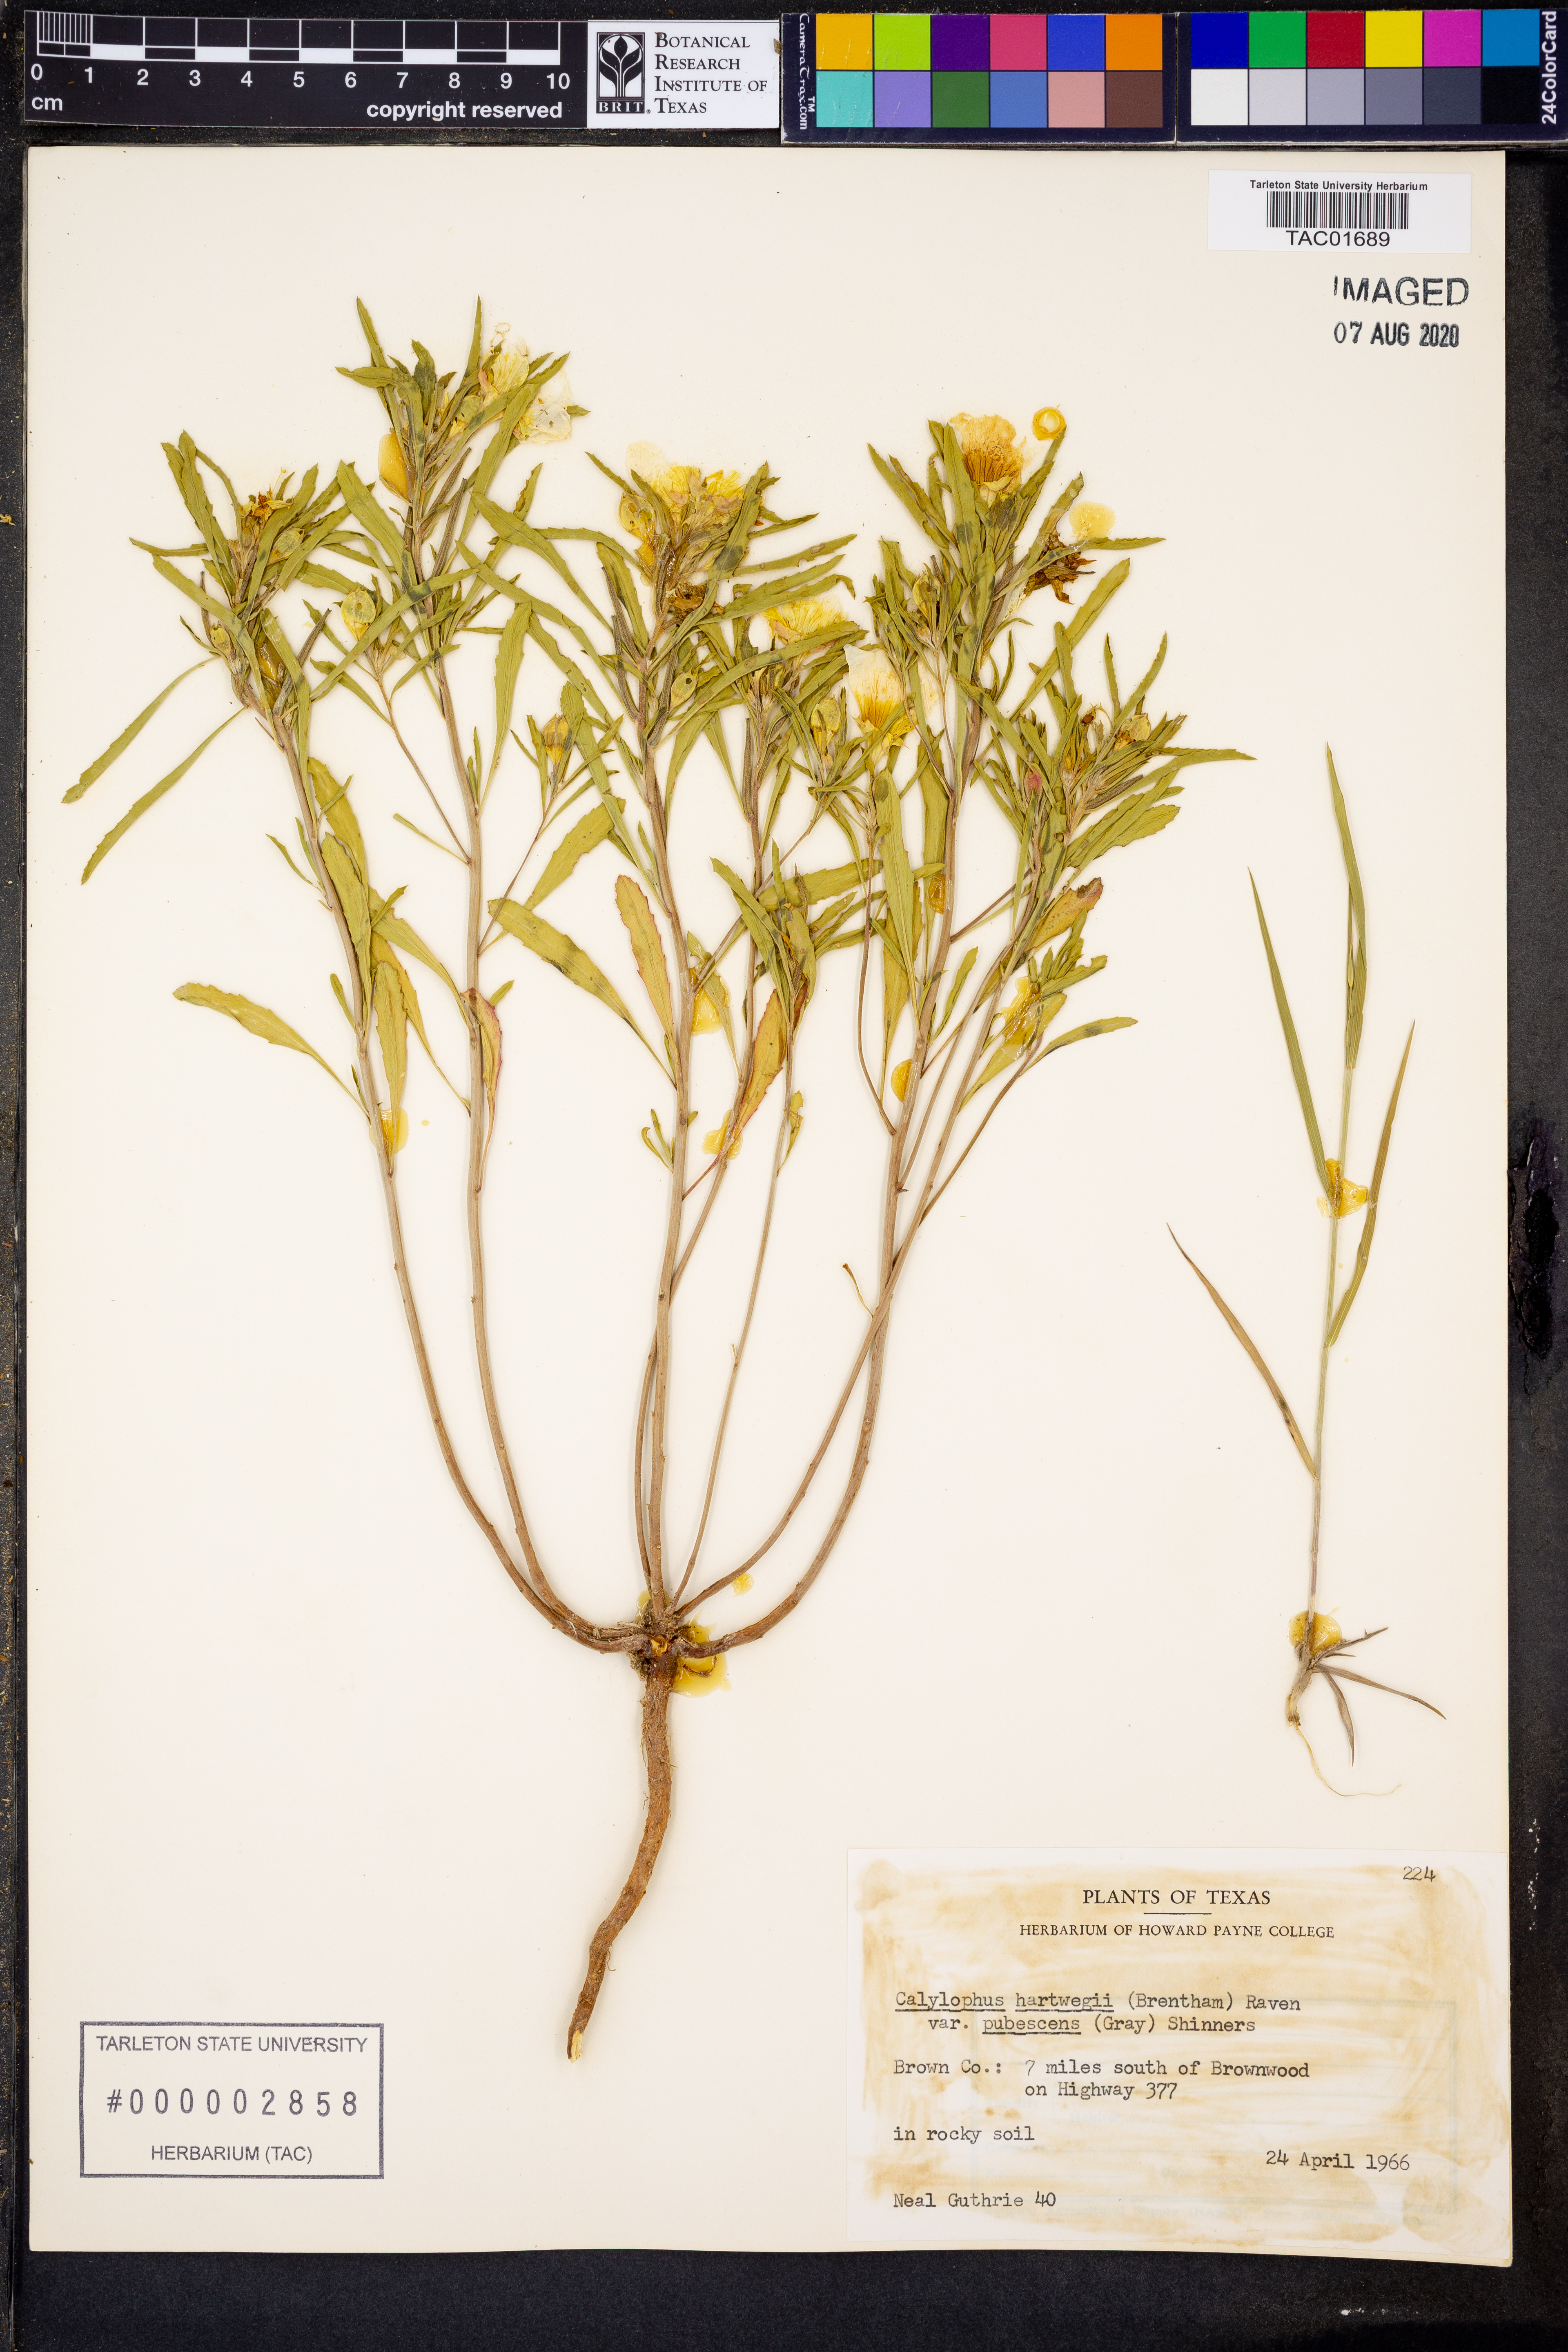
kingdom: Plantae
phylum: Tracheophyta
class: Magnoliopsida
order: Myrtales
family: Onagraceae
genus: Oenothera
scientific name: Oenothera hartwegii
